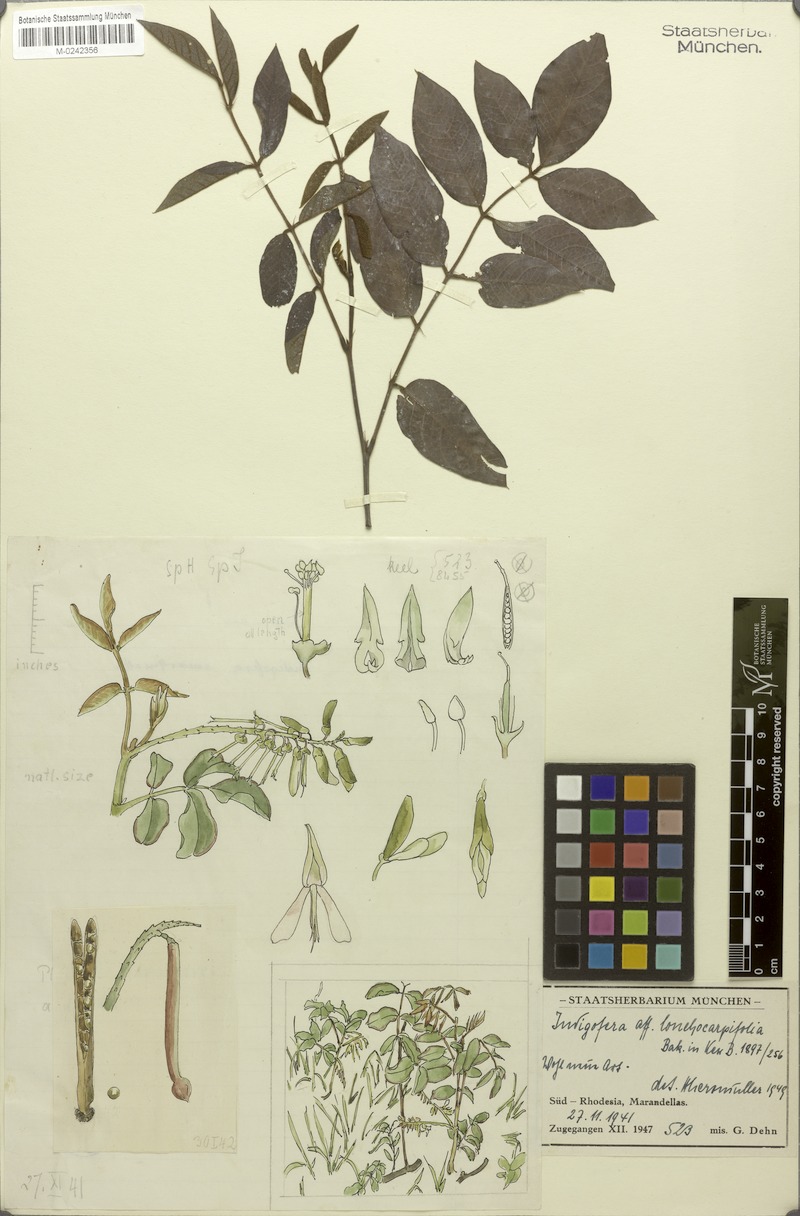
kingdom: Plantae
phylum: Tracheophyta
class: Magnoliopsida
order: Fabales
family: Fabaceae
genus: Indigofera
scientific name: Indigofera rhynchocarpa
